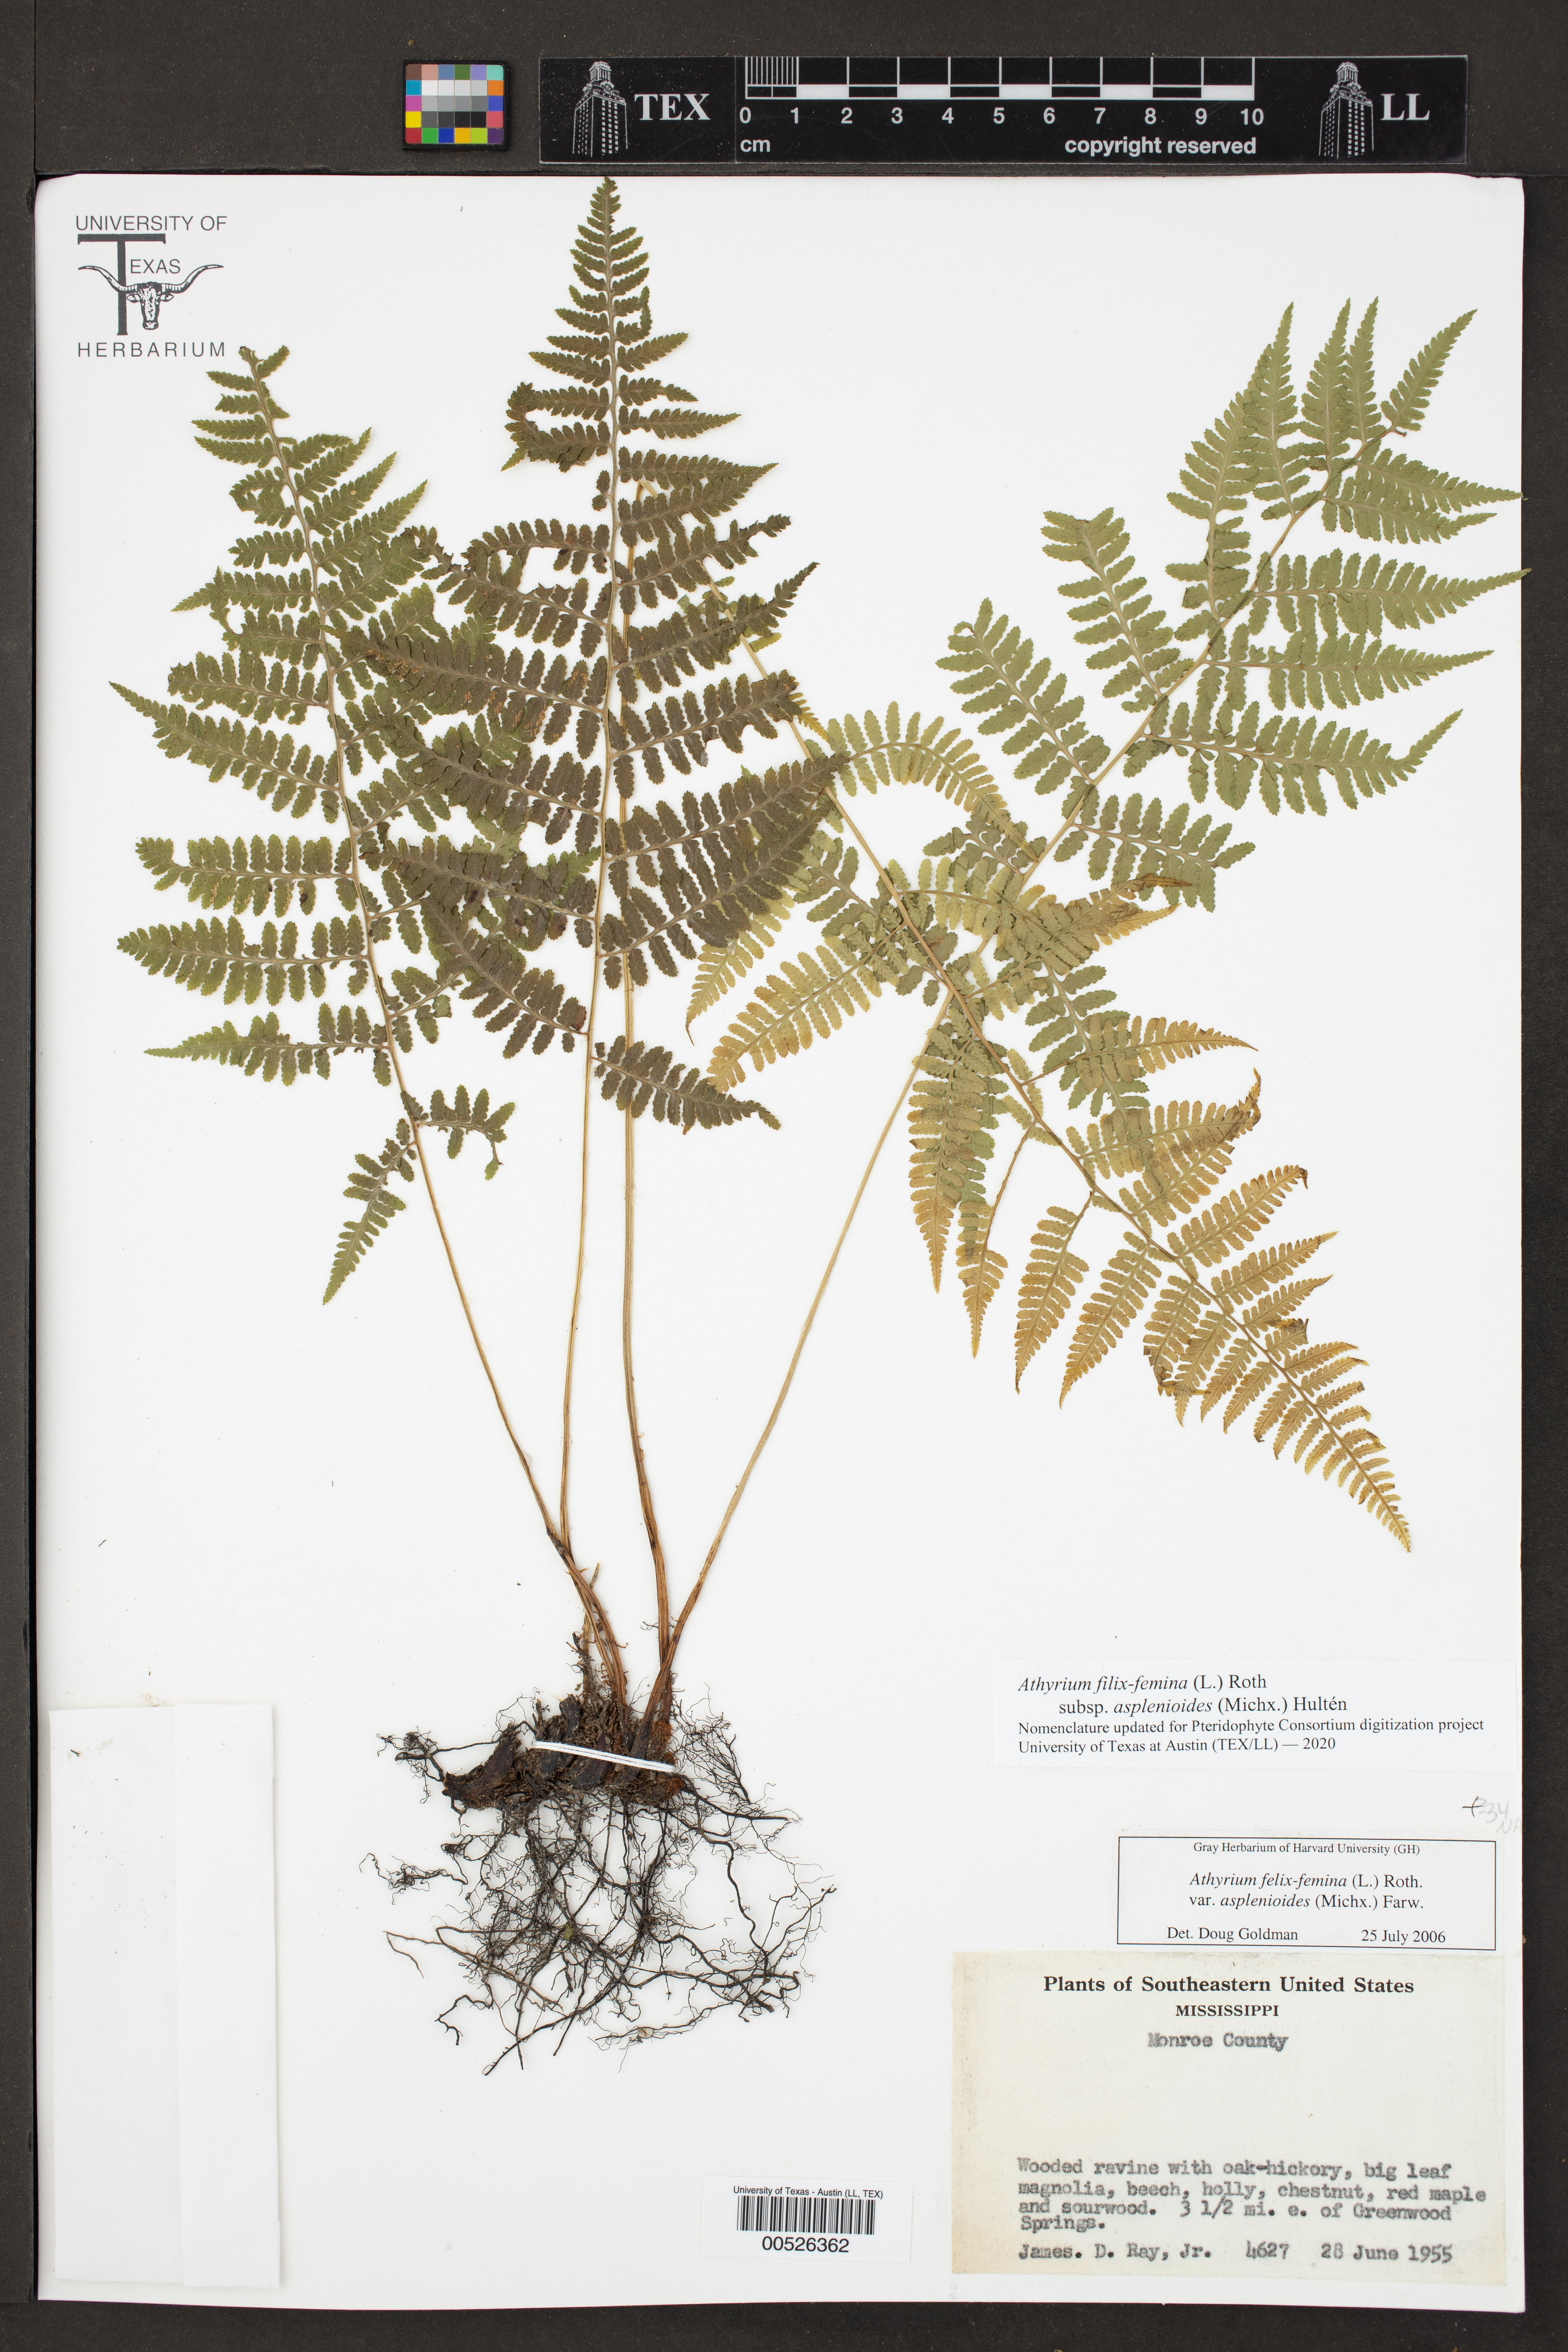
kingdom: Plantae
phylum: Tracheophyta
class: Polypodiopsida
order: Polypodiales
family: Athyriaceae
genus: Athyrium
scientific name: Athyrium asplenioides
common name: Southern lady fern
